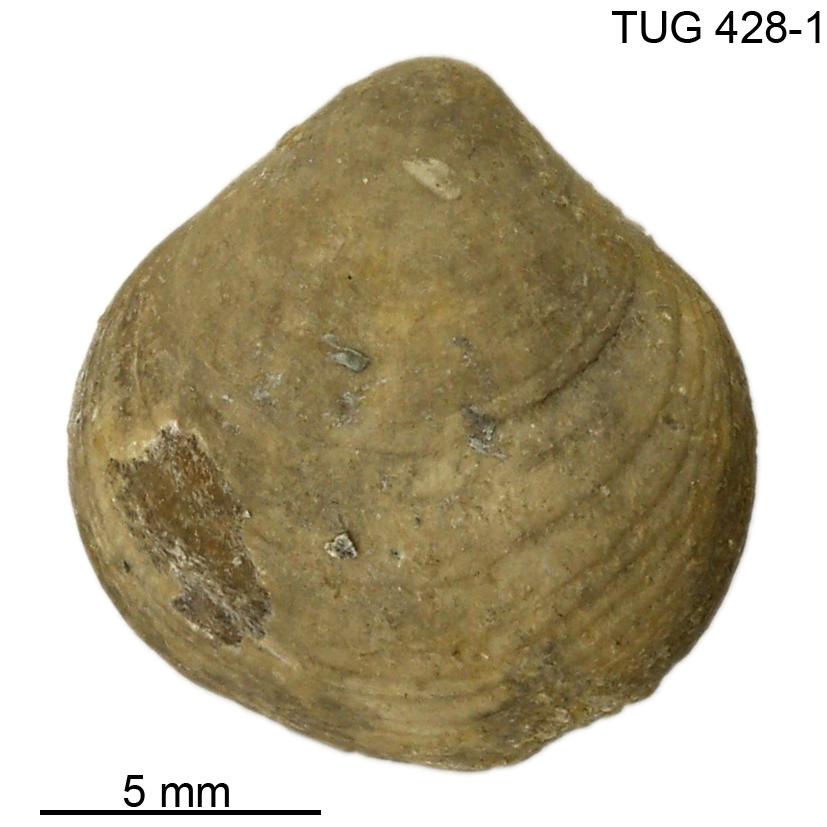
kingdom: Animalia
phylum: Brachiopoda
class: Rhynchonellata
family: Carinatinidae
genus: Spirigerina
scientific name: Spirigerina
